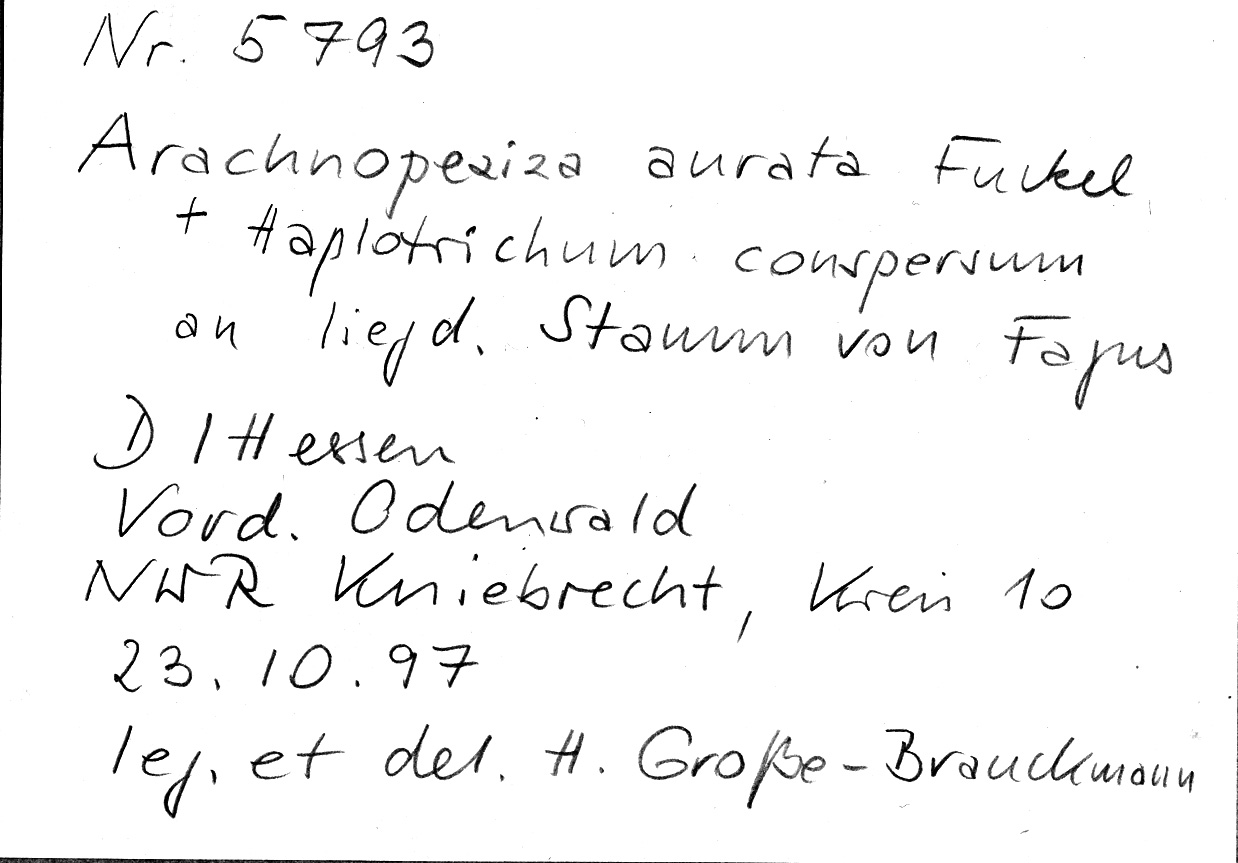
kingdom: Fungi
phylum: Basidiomycota
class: Agaricomycetes
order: Cantharellales
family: Botryobasidiaceae
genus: Botryobasidium
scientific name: Botryobasidium conspersum
